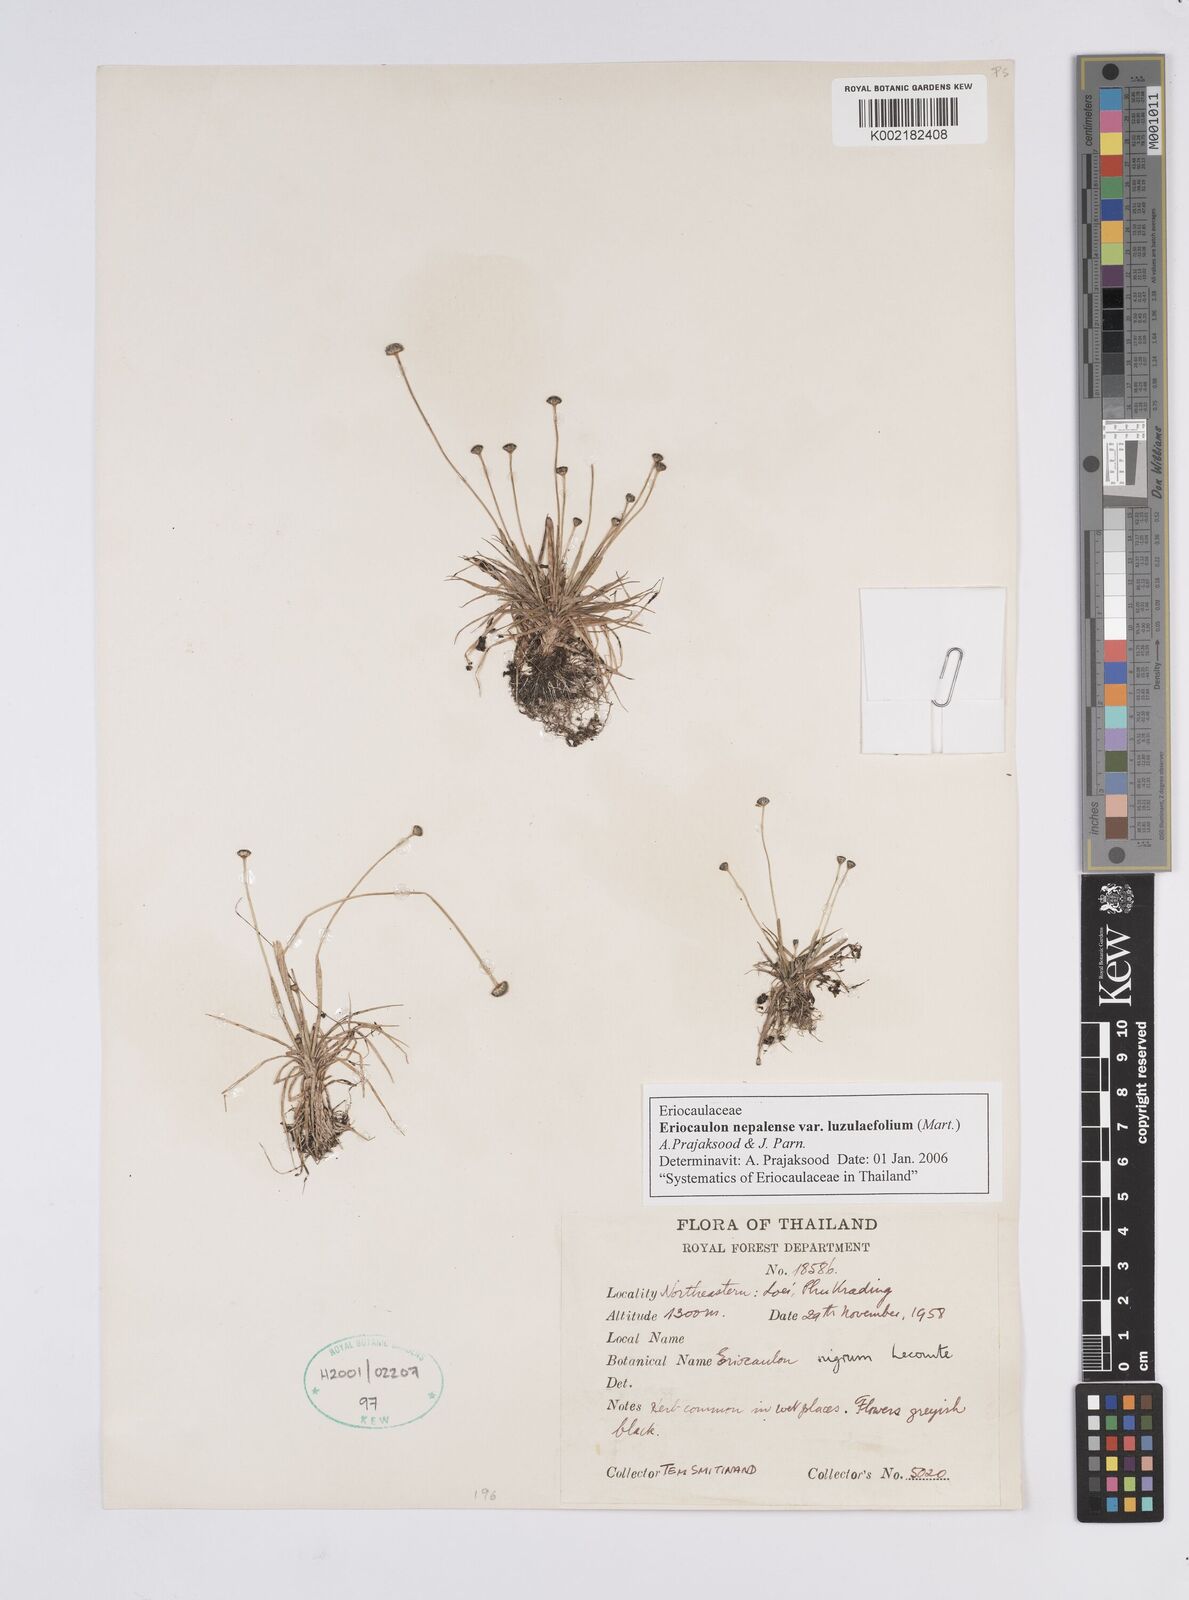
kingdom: Plantae
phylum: Tracheophyta
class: Liliopsida
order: Poales
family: Eriocaulaceae
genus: Eriocaulon
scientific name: Eriocaulon nepalense
